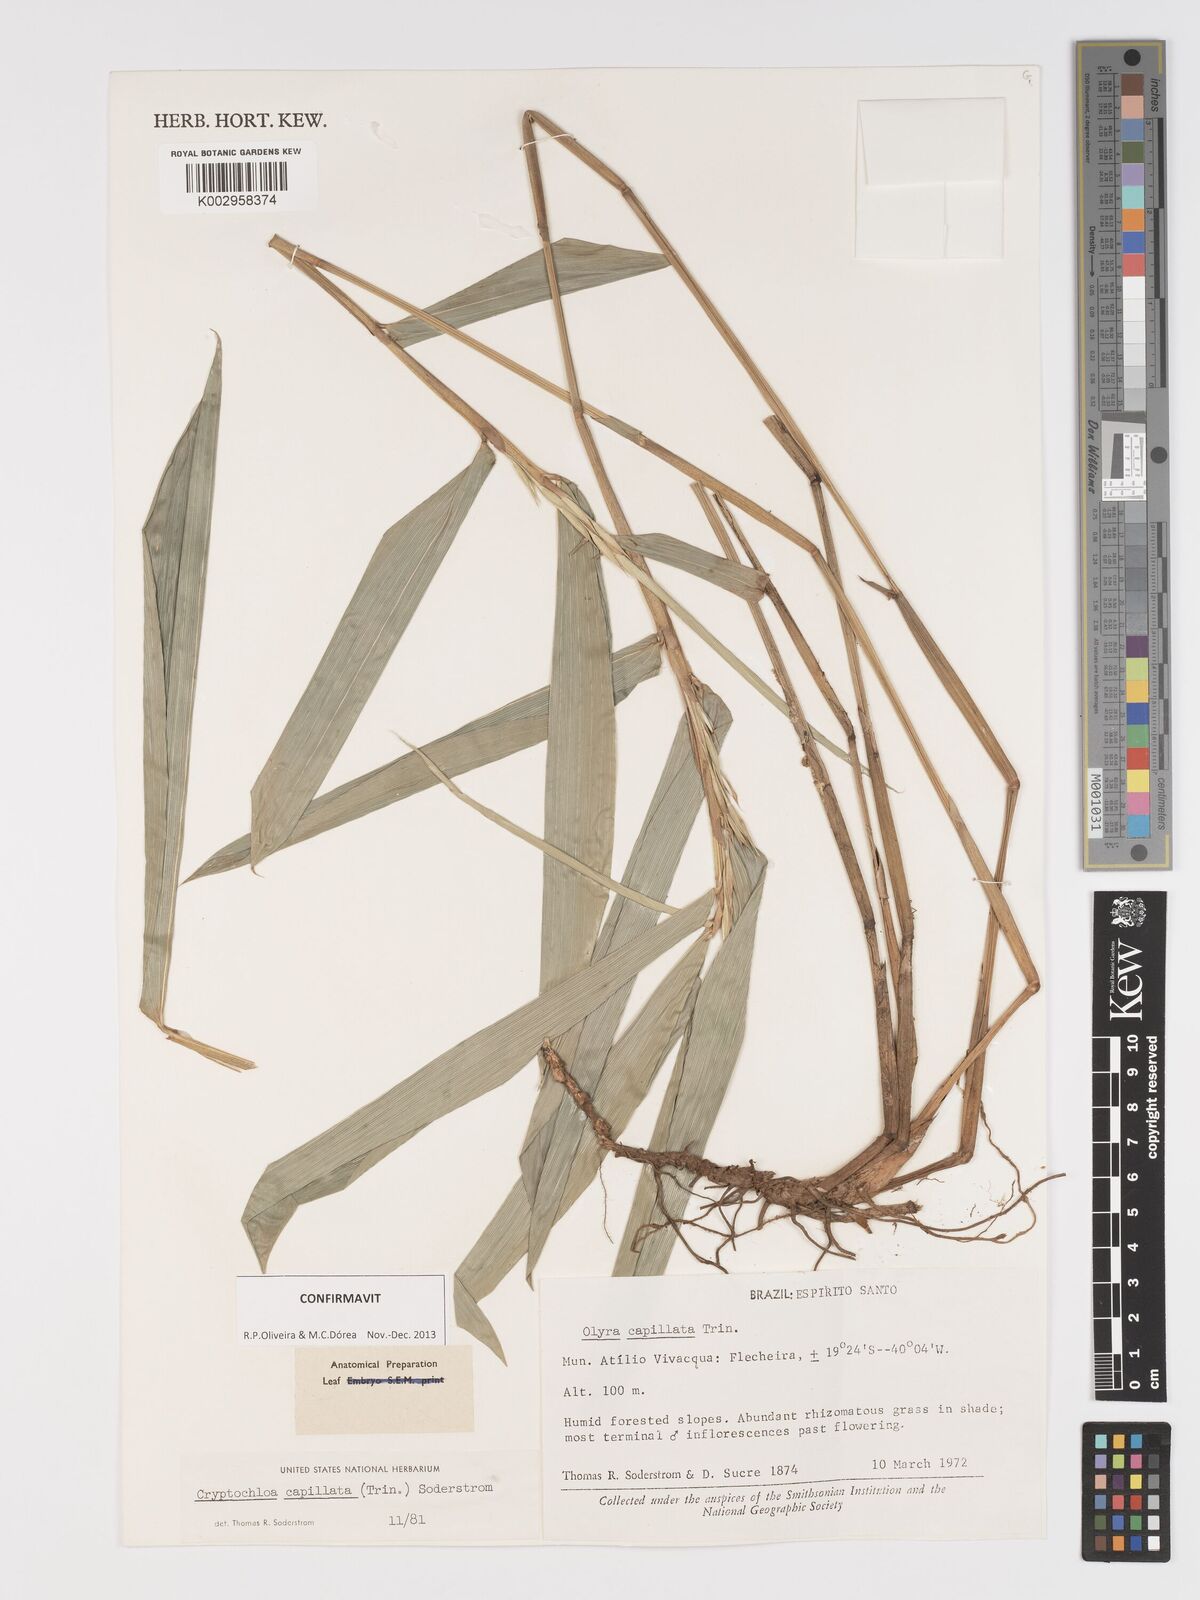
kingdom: Plantae
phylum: Tracheophyta
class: Liliopsida
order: Poales
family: Poaceae
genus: Cryptochloa
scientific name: Cryptochloa capillata
